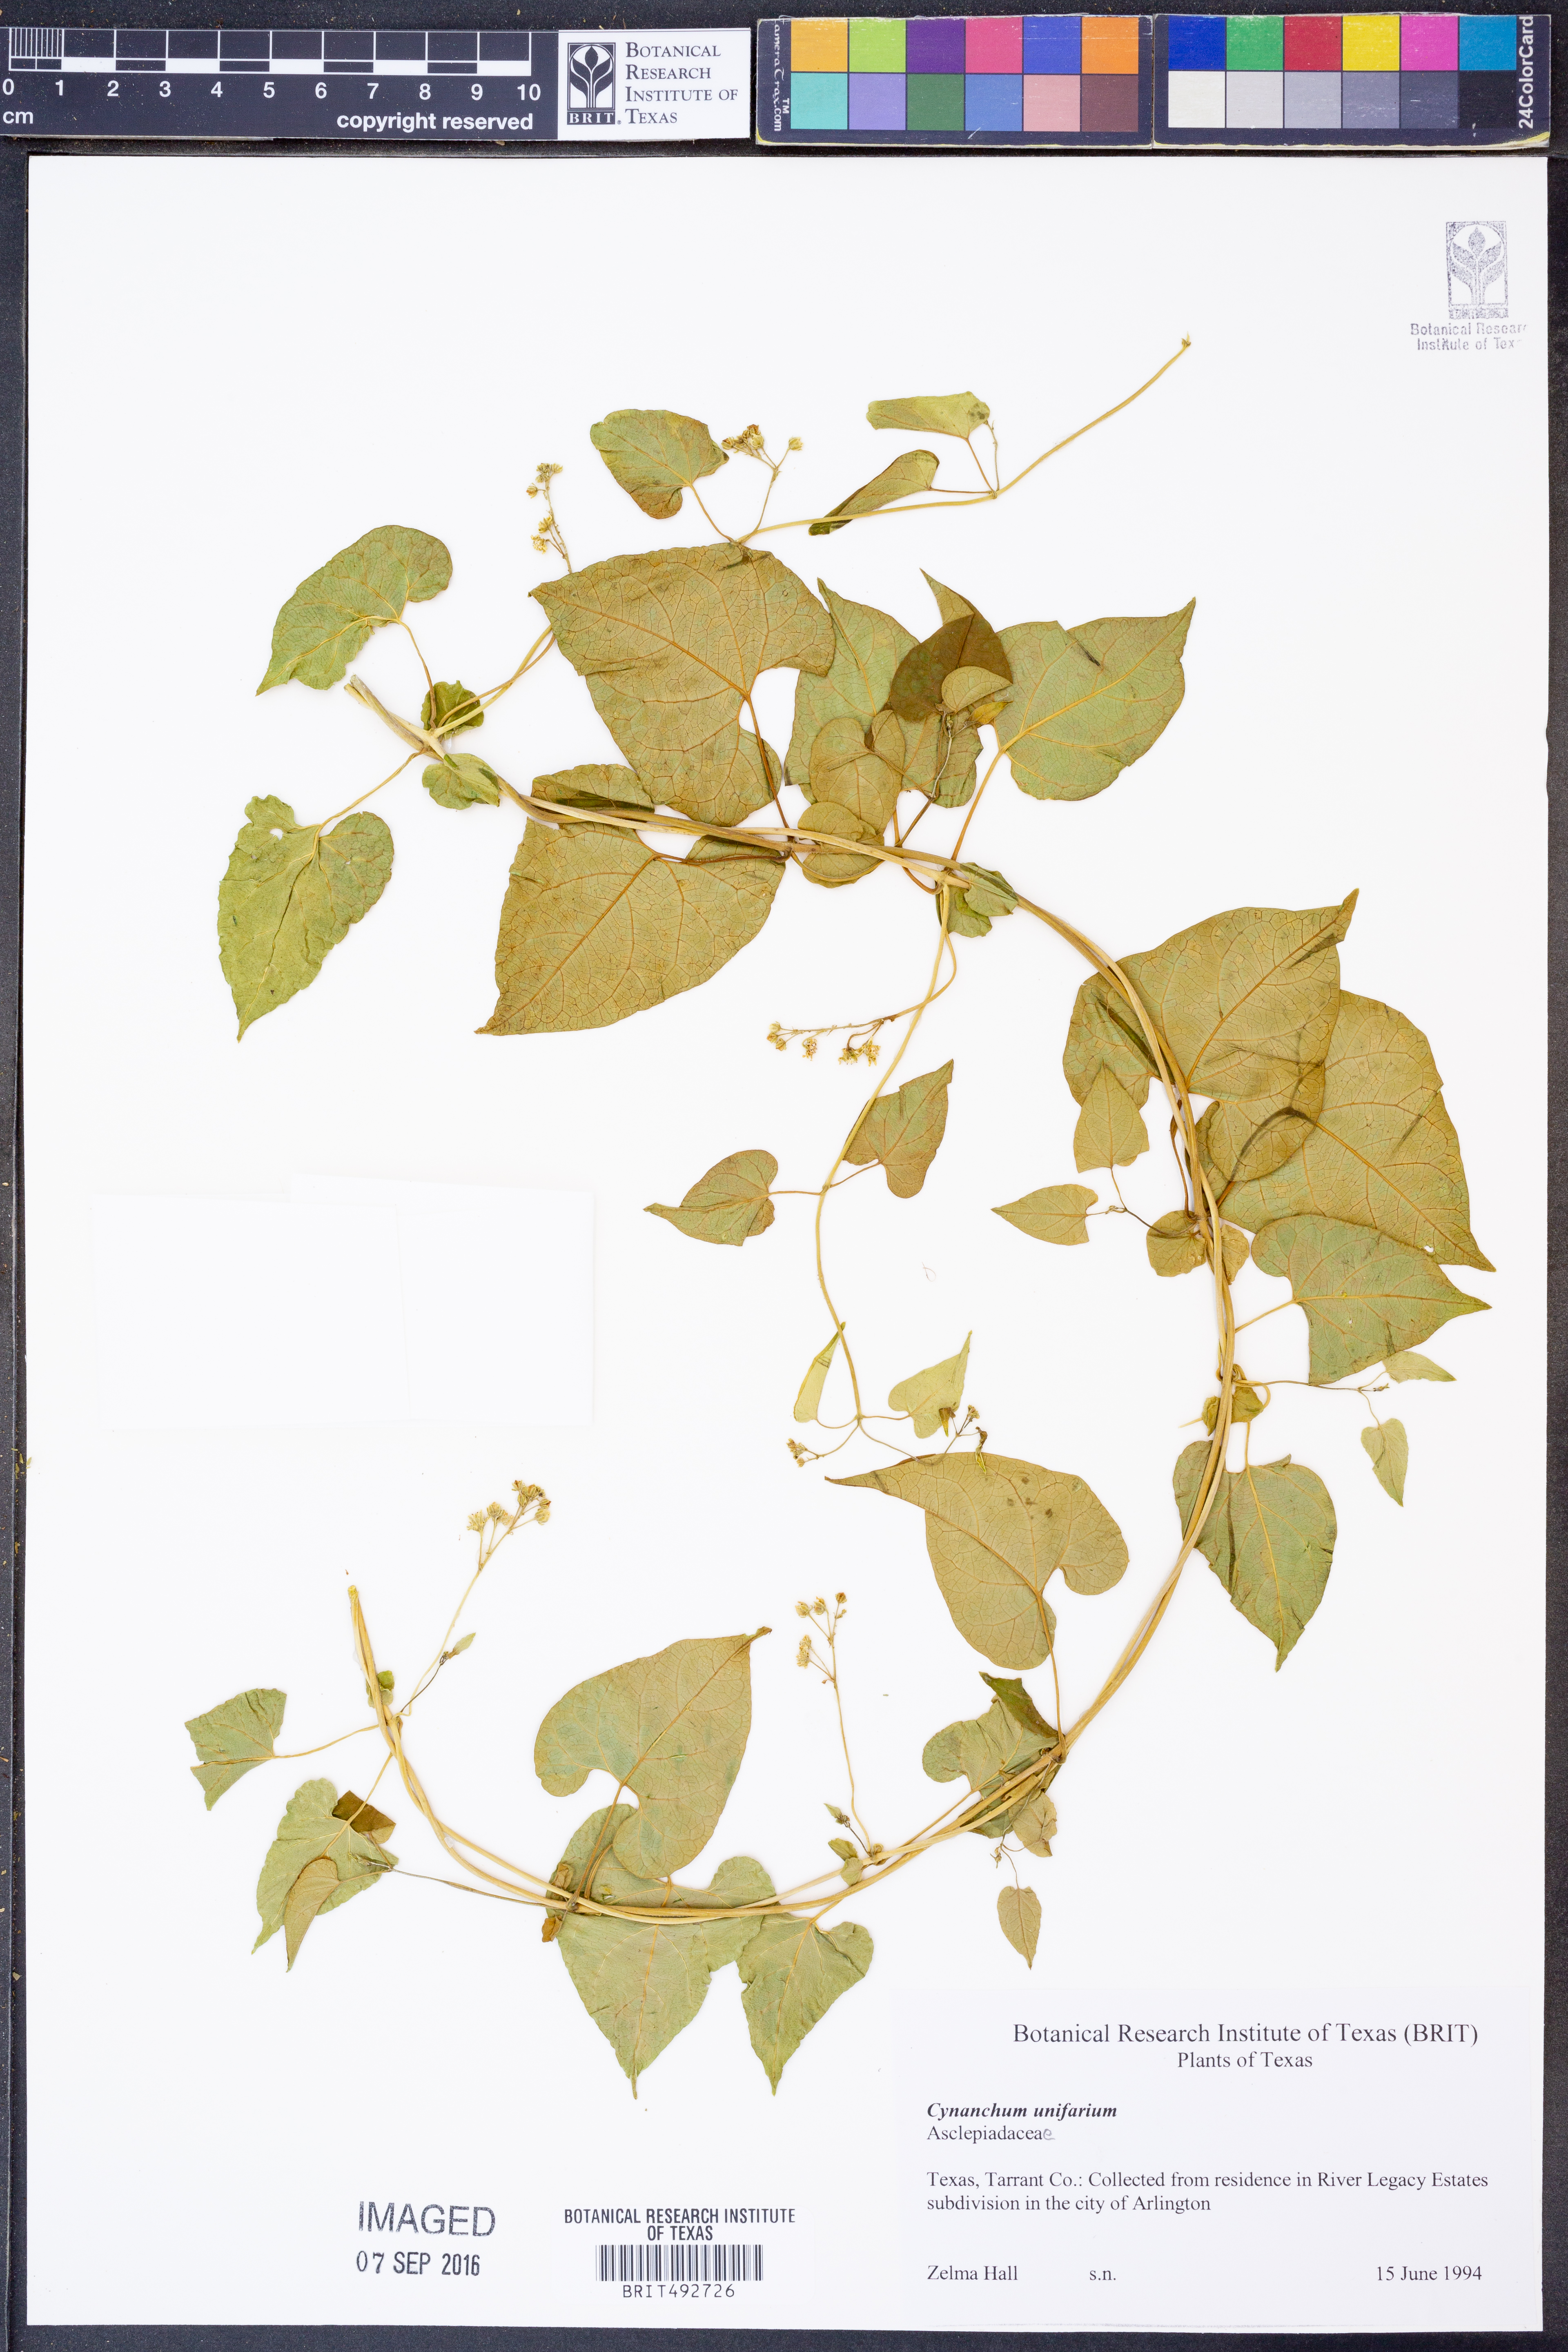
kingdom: Plantae
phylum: Tracheophyta
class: Magnoliopsida
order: Gentianales
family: Apocynaceae
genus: Cynanchum
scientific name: Cynanchum racemosum
